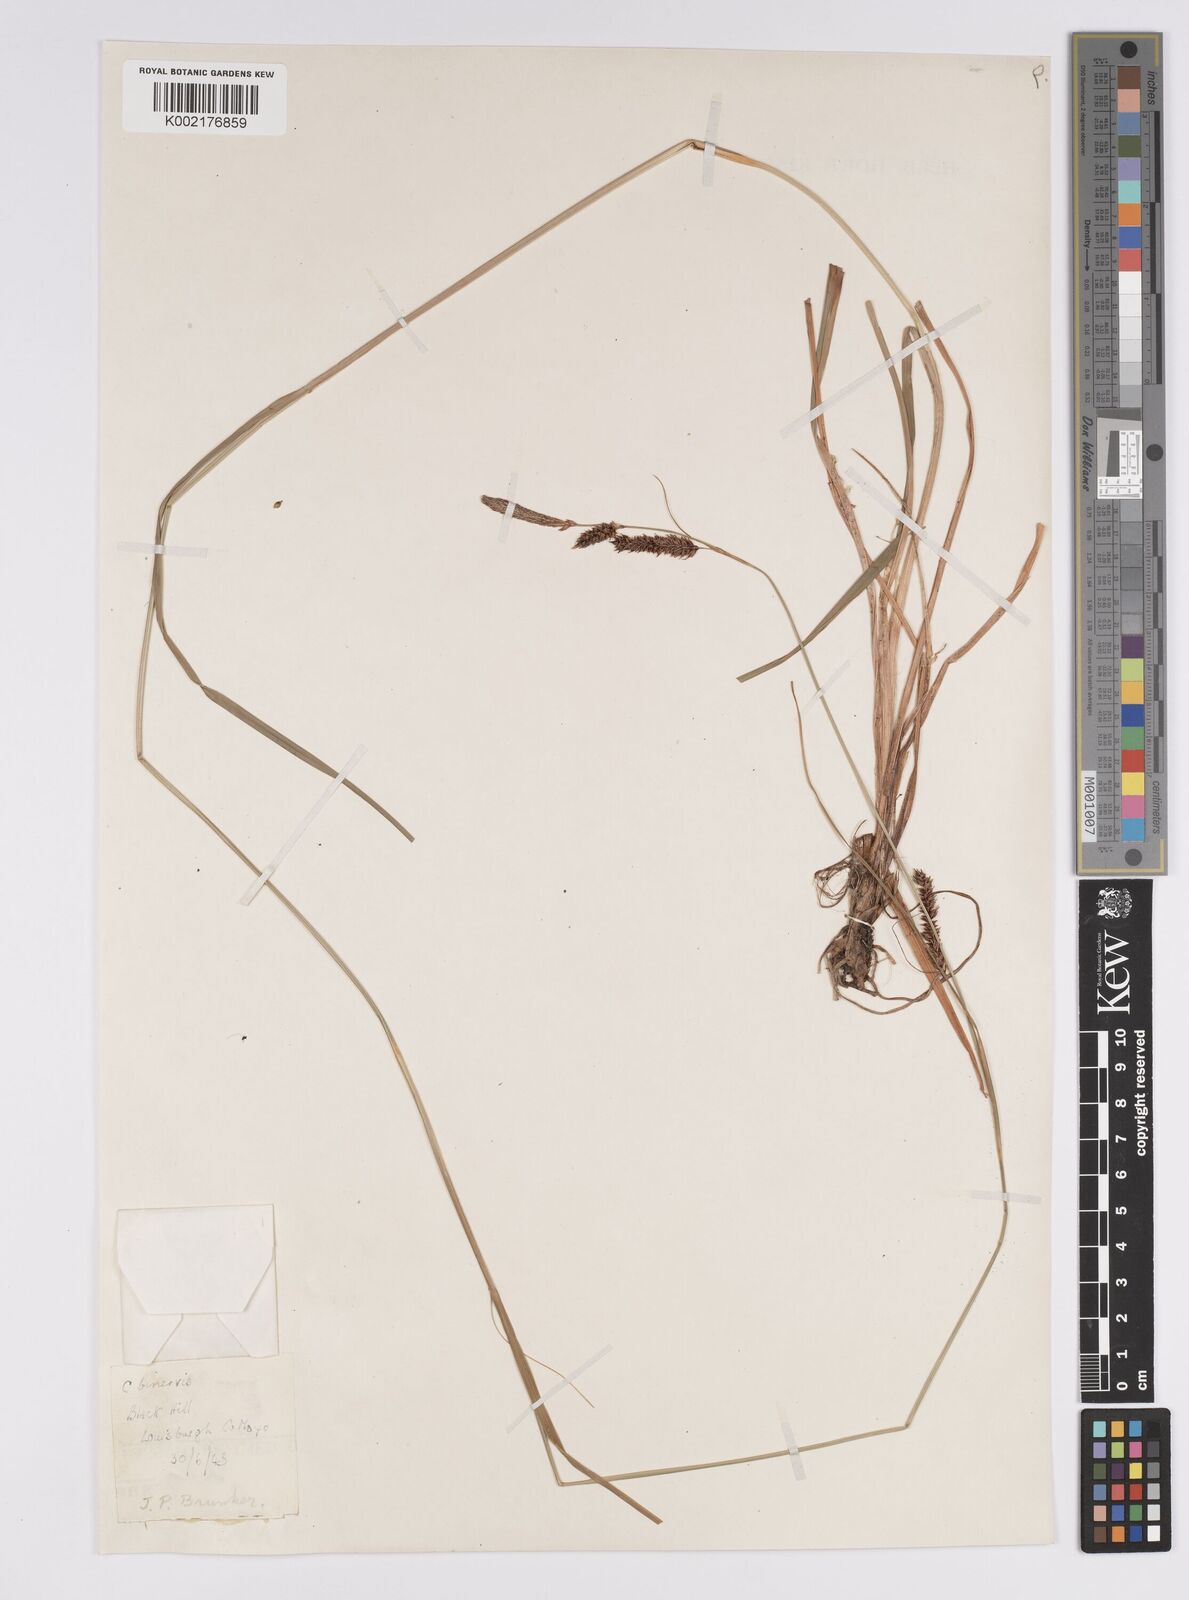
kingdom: Plantae
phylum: Tracheophyta
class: Liliopsida
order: Poales
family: Cyperaceae
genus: Carex
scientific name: Carex binervis
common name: Green-ribbed sedge
